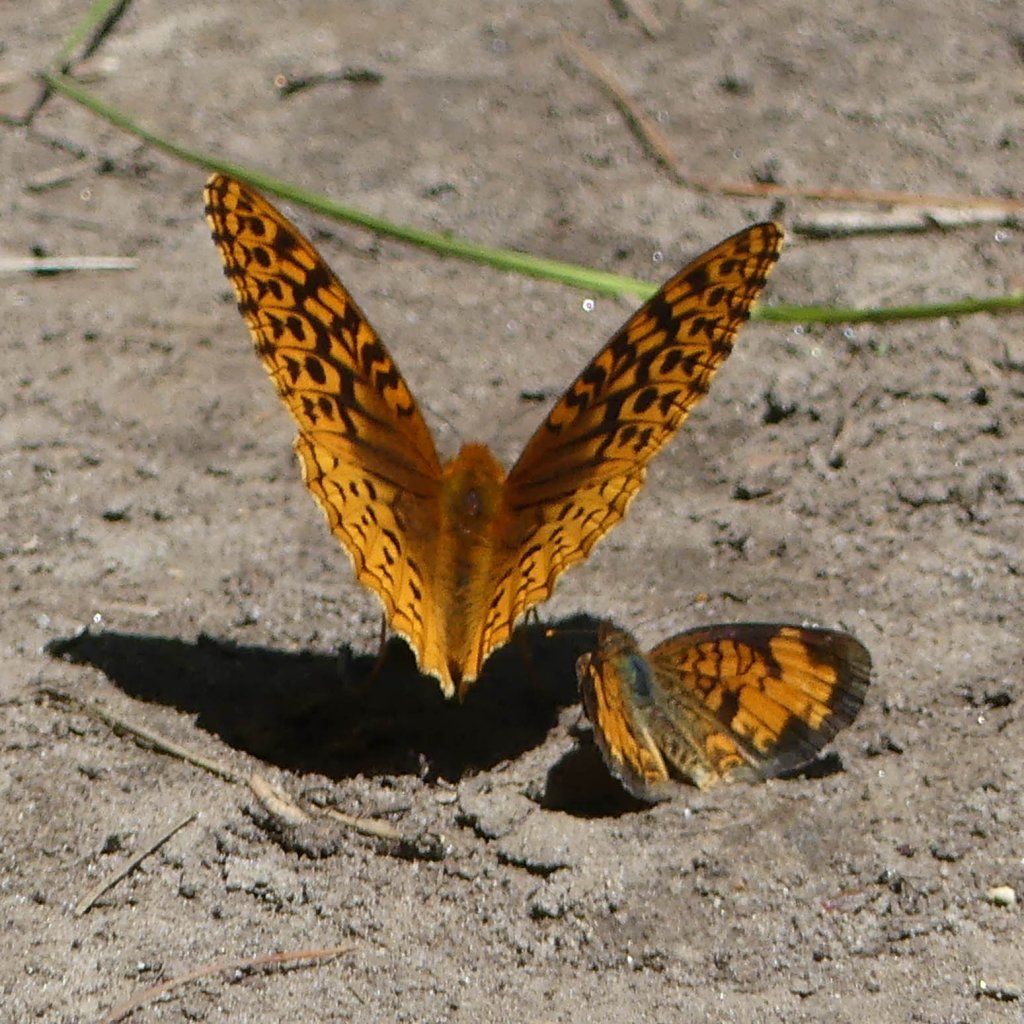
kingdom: Animalia
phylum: Arthropoda
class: Insecta
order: Lepidoptera
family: Nymphalidae
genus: Speyeria
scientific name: Speyeria cybele
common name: Great Spangled Fritillary
